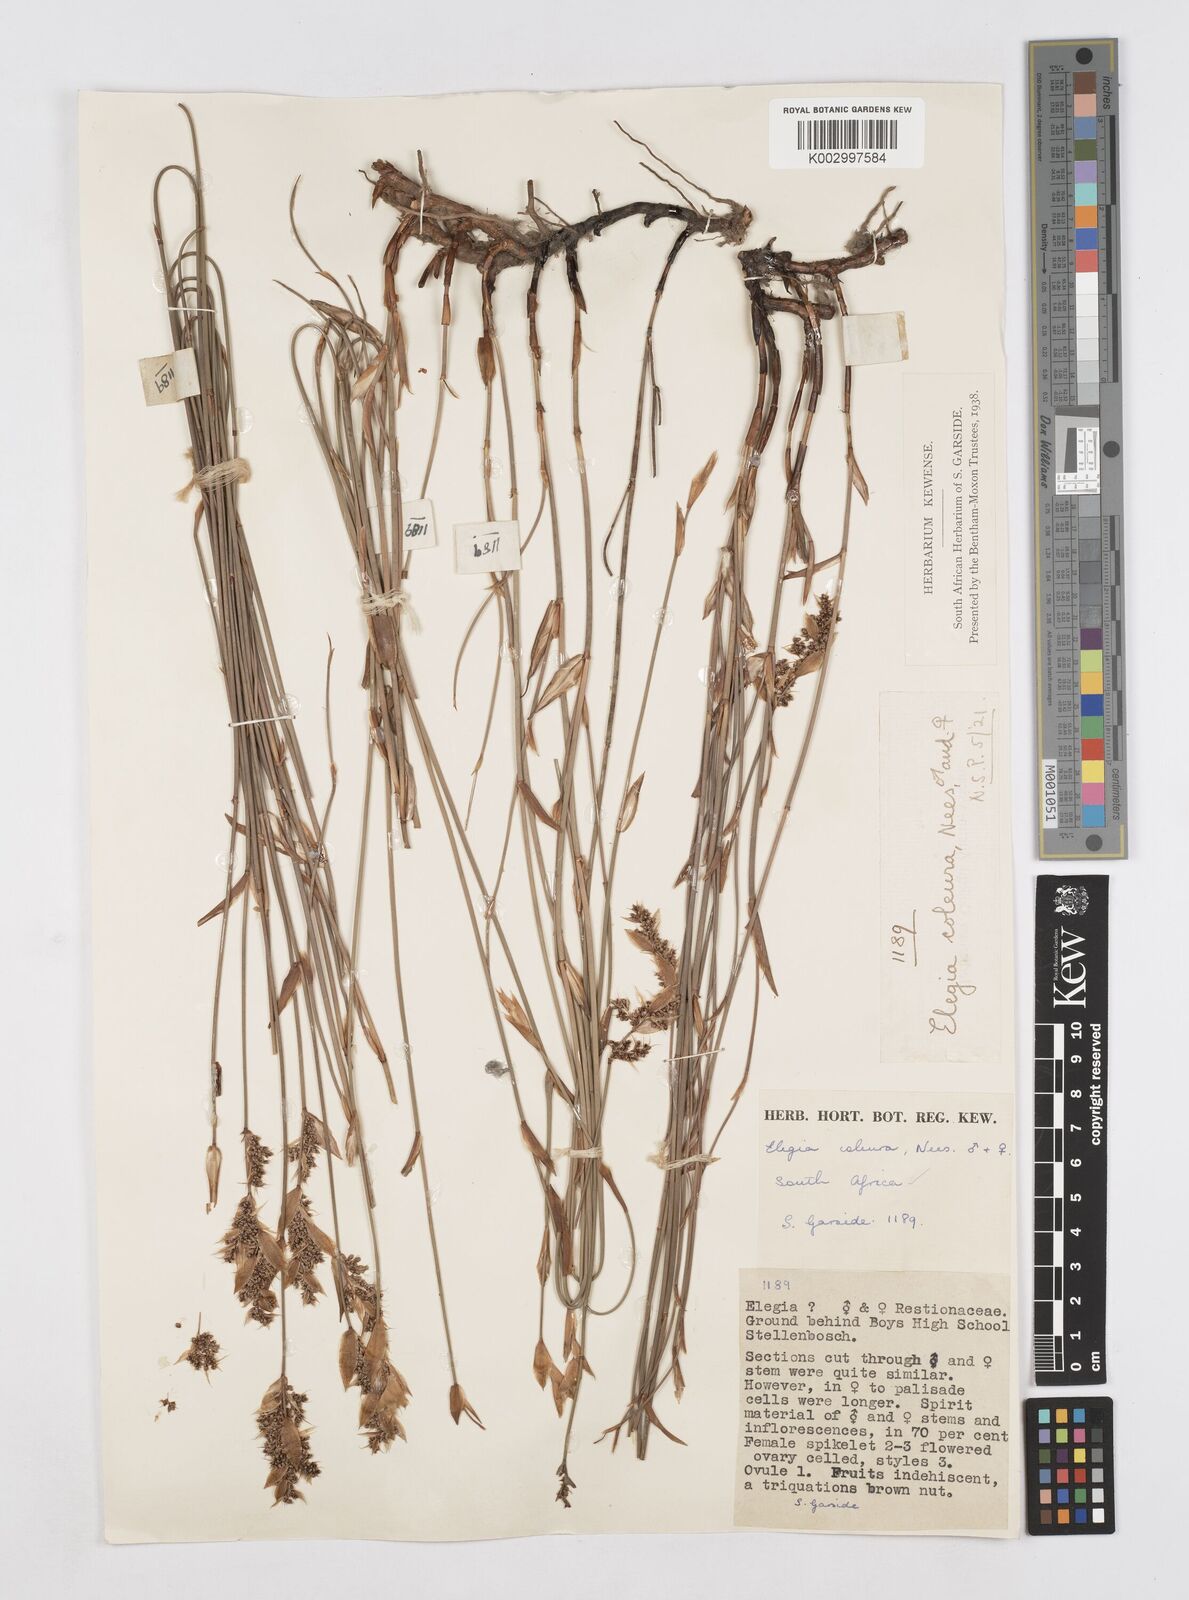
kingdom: Plantae
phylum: Tracheophyta
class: Liliopsida
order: Poales
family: Restionaceae
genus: Elegia
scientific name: Elegia coleura
